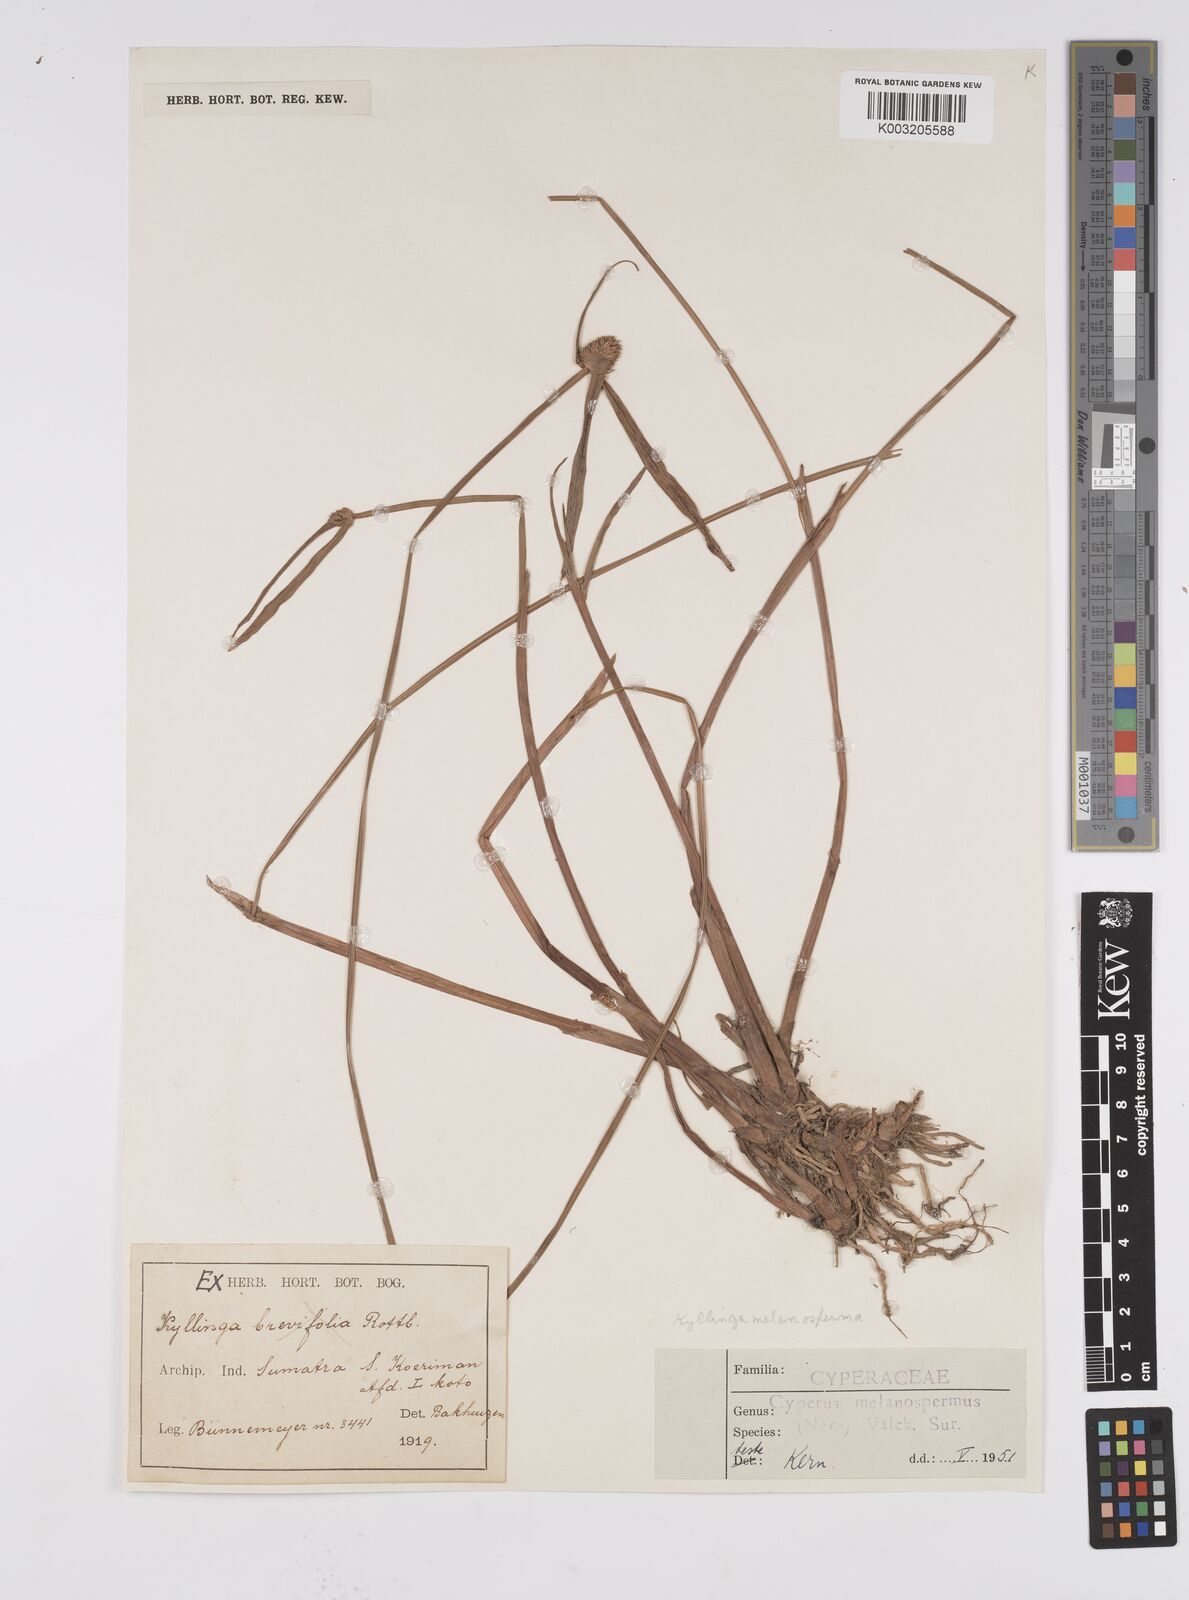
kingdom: Plantae
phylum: Tracheophyta
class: Liliopsida
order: Poales
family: Cyperaceae
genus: Cyperus
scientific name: Cyperus melanospermus
